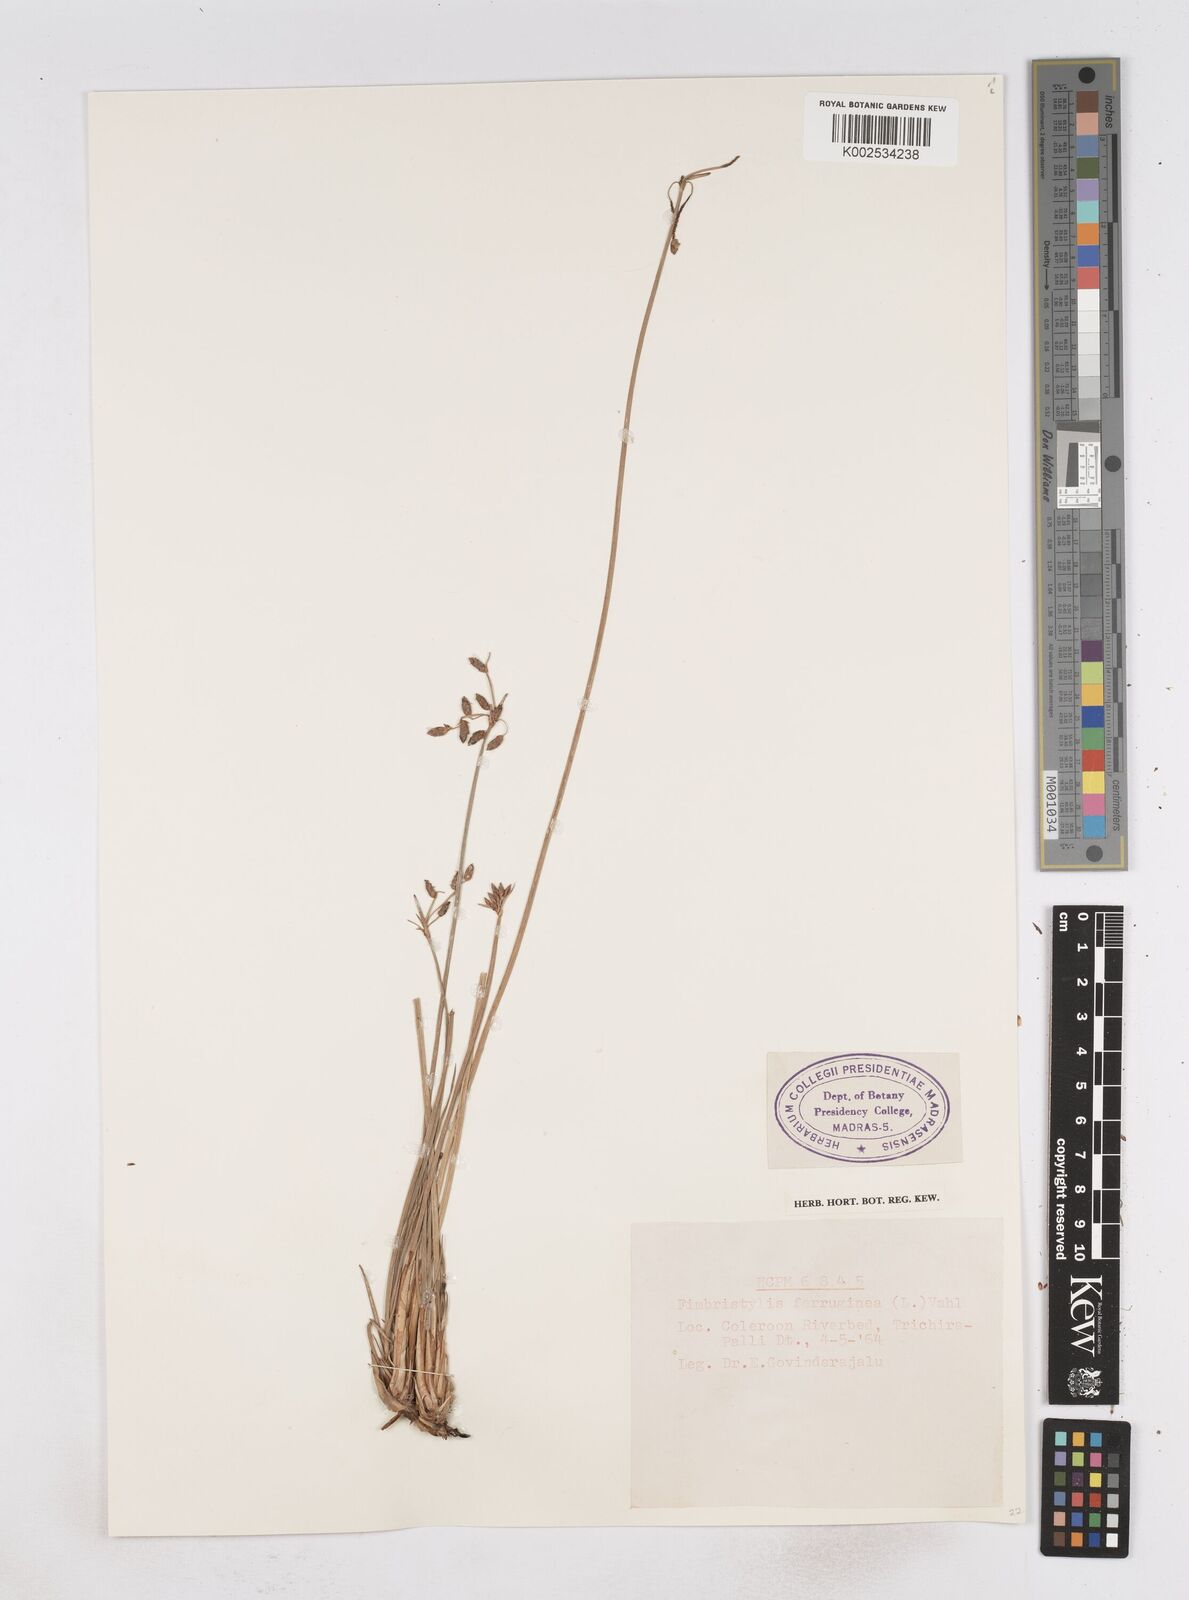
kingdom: Plantae
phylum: Tracheophyta
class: Liliopsida
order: Poales
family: Cyperaceae
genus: Fimbristylis
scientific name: Fimbristylis ferruginea
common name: West indian fimbry
